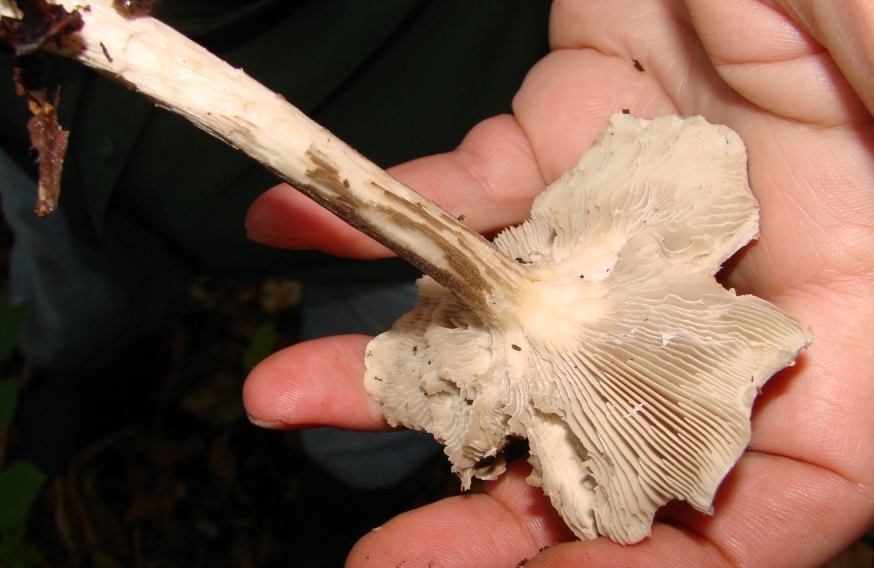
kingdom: Fungi
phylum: Basidiomycota
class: Agaricomycetes
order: Agaricales
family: Tricholomataceae
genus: Melanoleuca
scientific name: Melanoleuca
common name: munkehat
